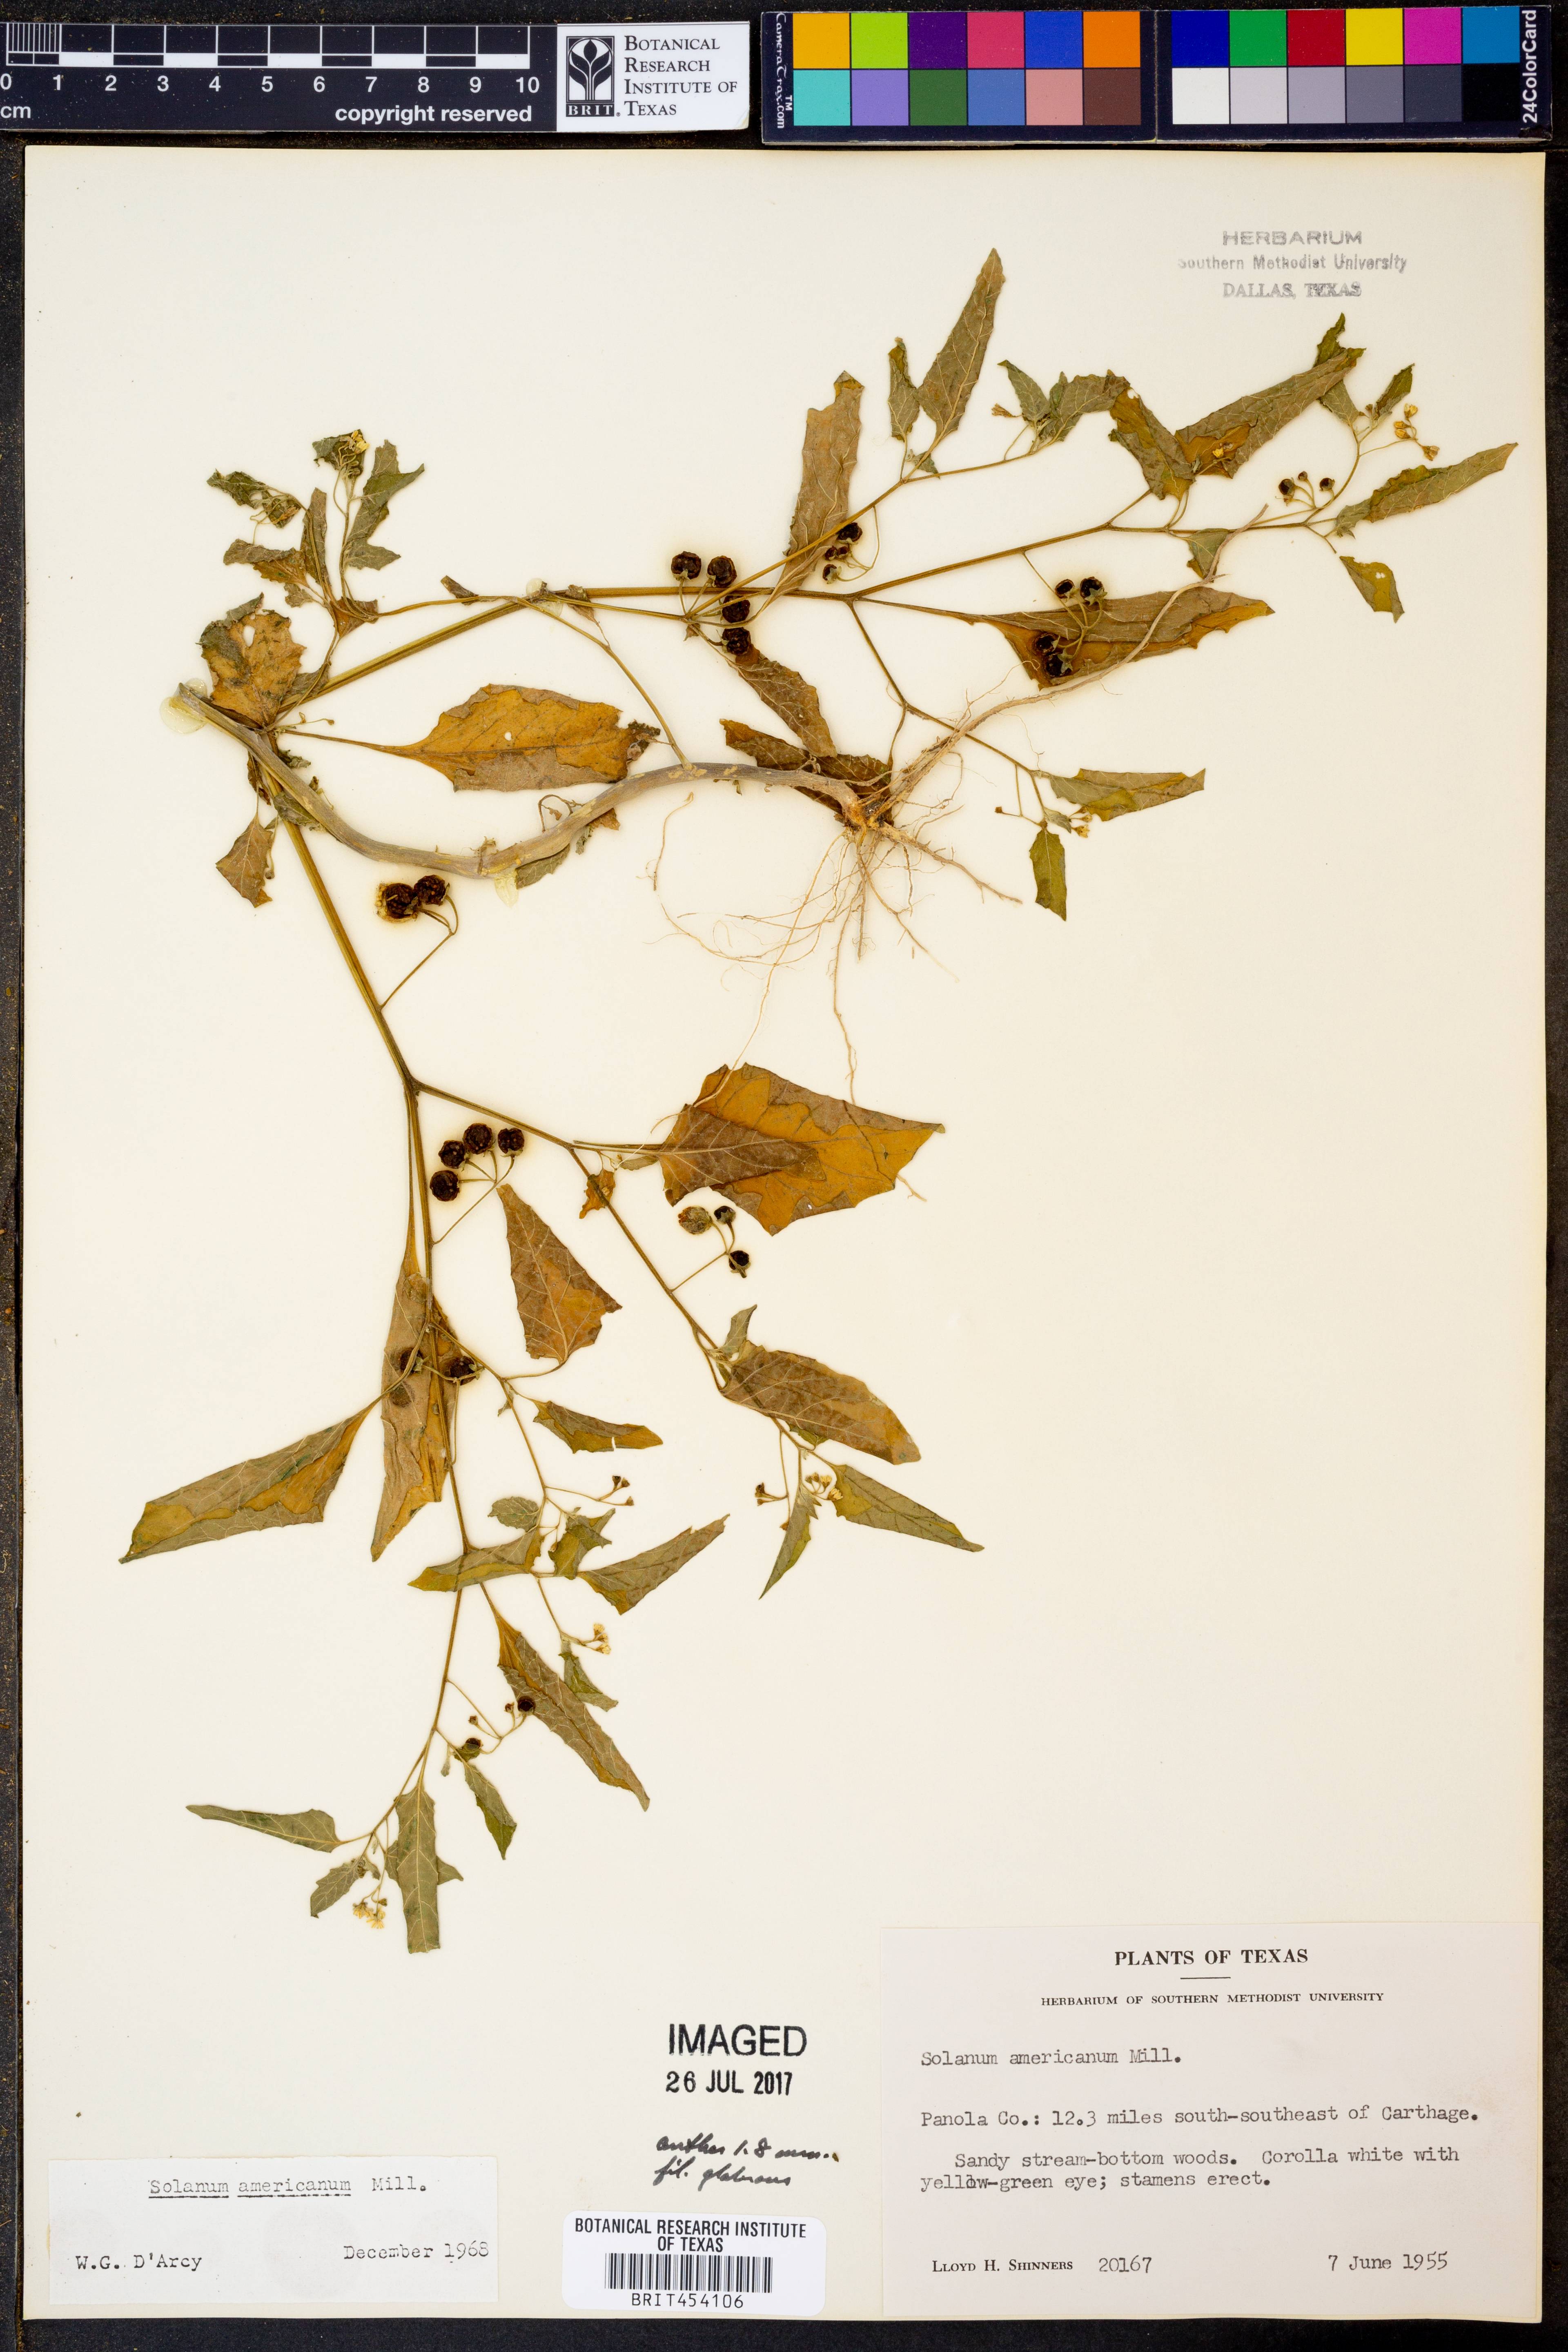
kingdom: Plantae
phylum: Tracheophyta
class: Magnoliopsida
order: Solanales
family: Solanaceae
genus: Solanum
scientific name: Solanum americanum
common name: American black nightshade
